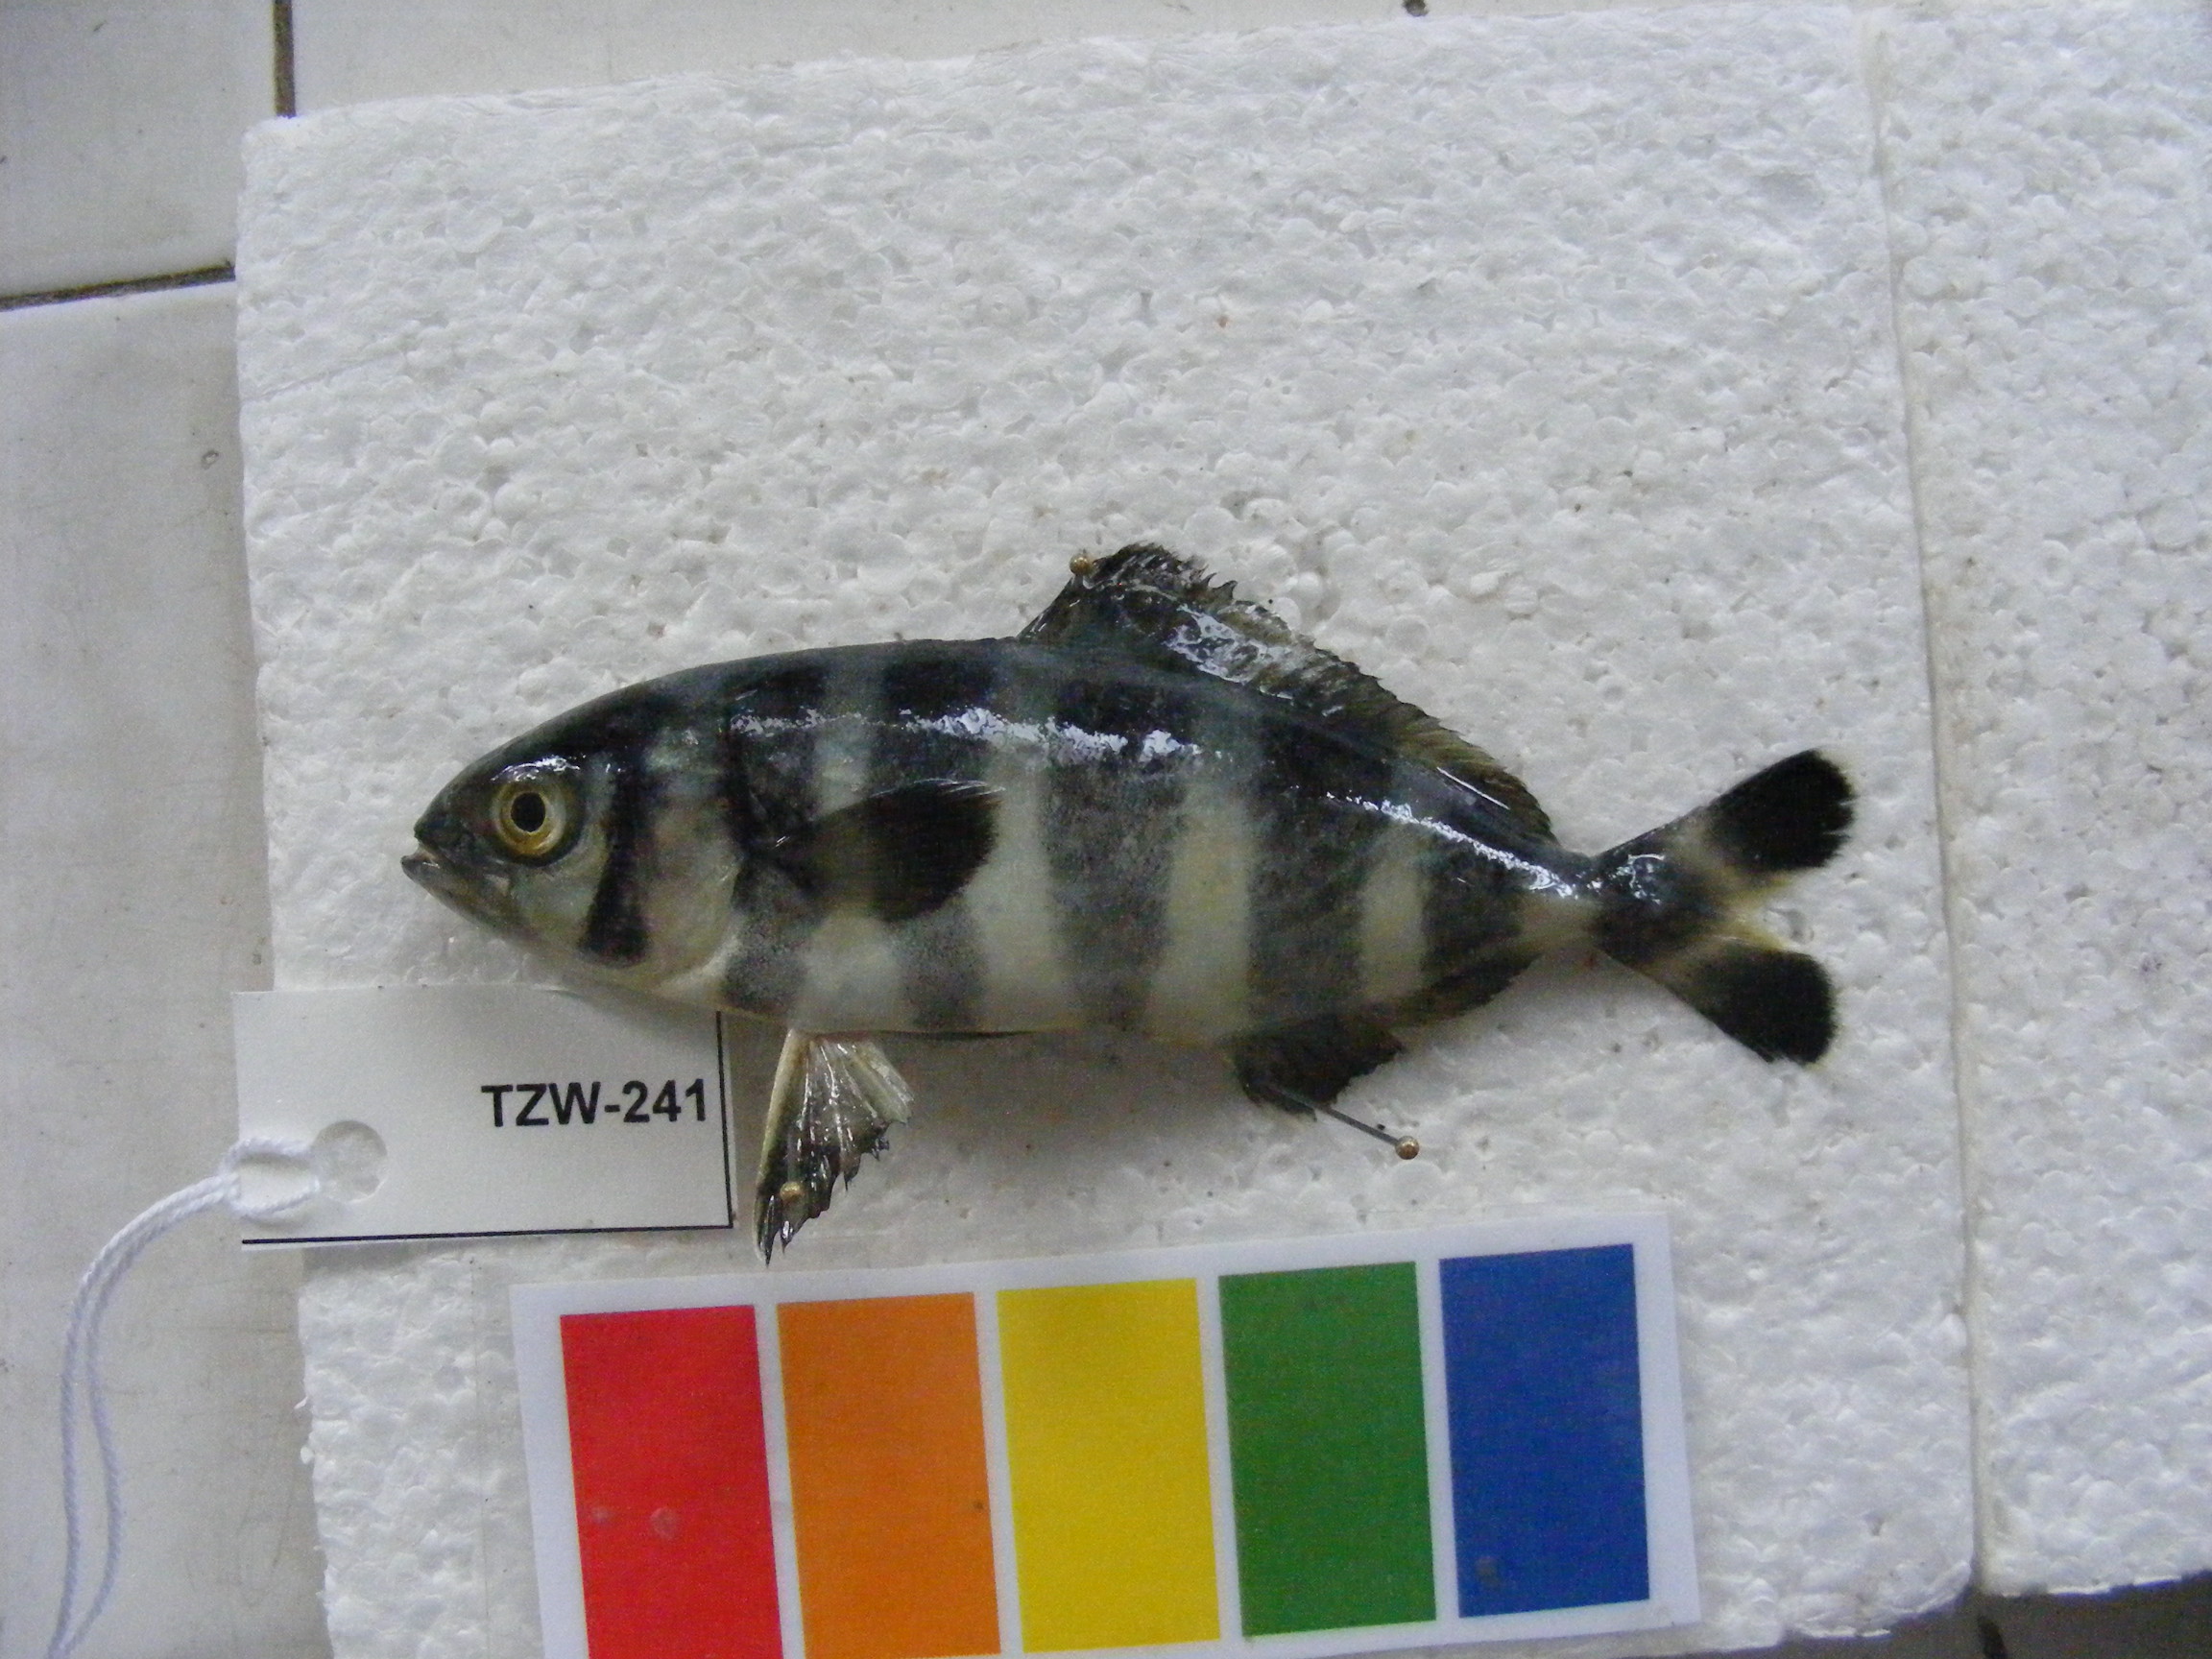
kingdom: Animalia
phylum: Chordata
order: Perciformes
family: Carangidae
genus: Naucrates
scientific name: Naucrates ductor
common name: Pilotfish
